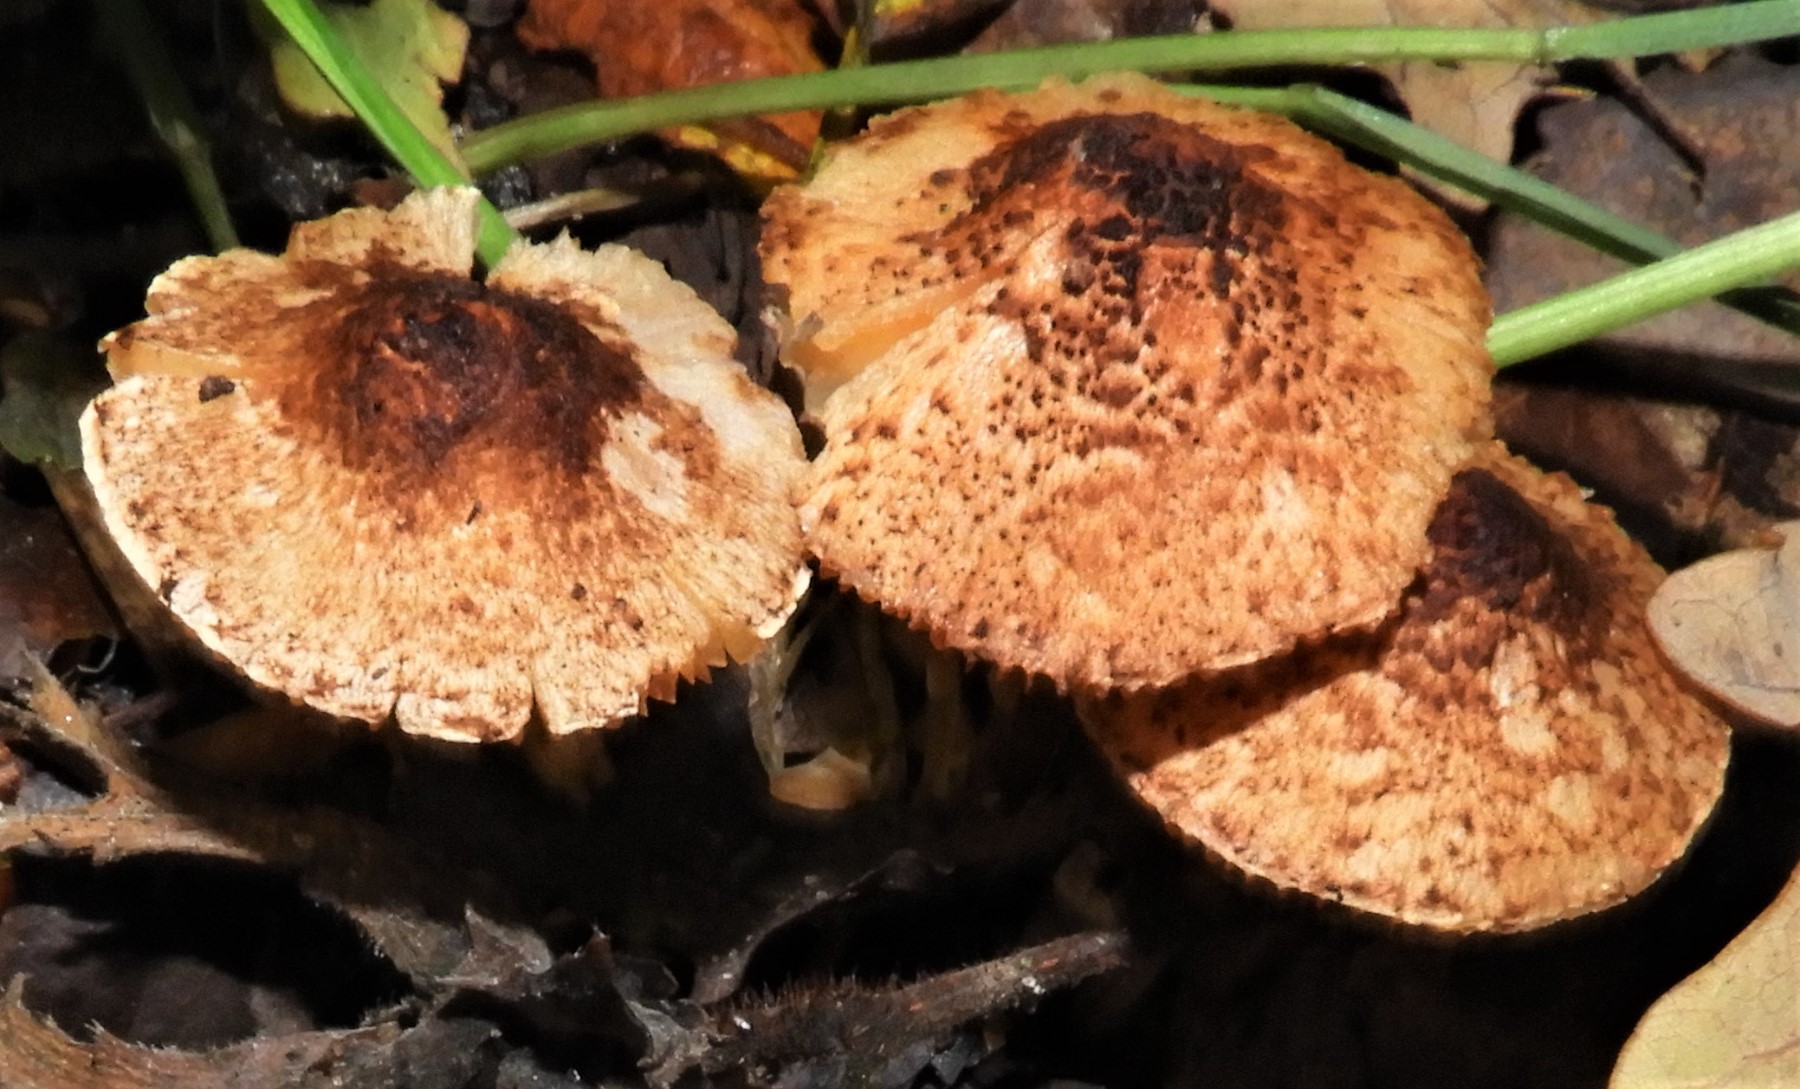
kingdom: Fungi
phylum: Basidiomycota
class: Agaricomycetes
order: Agaricales
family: Agaricaceae
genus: Lepiota
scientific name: Lepiota castanea
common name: kastaniebrun parasolhat
